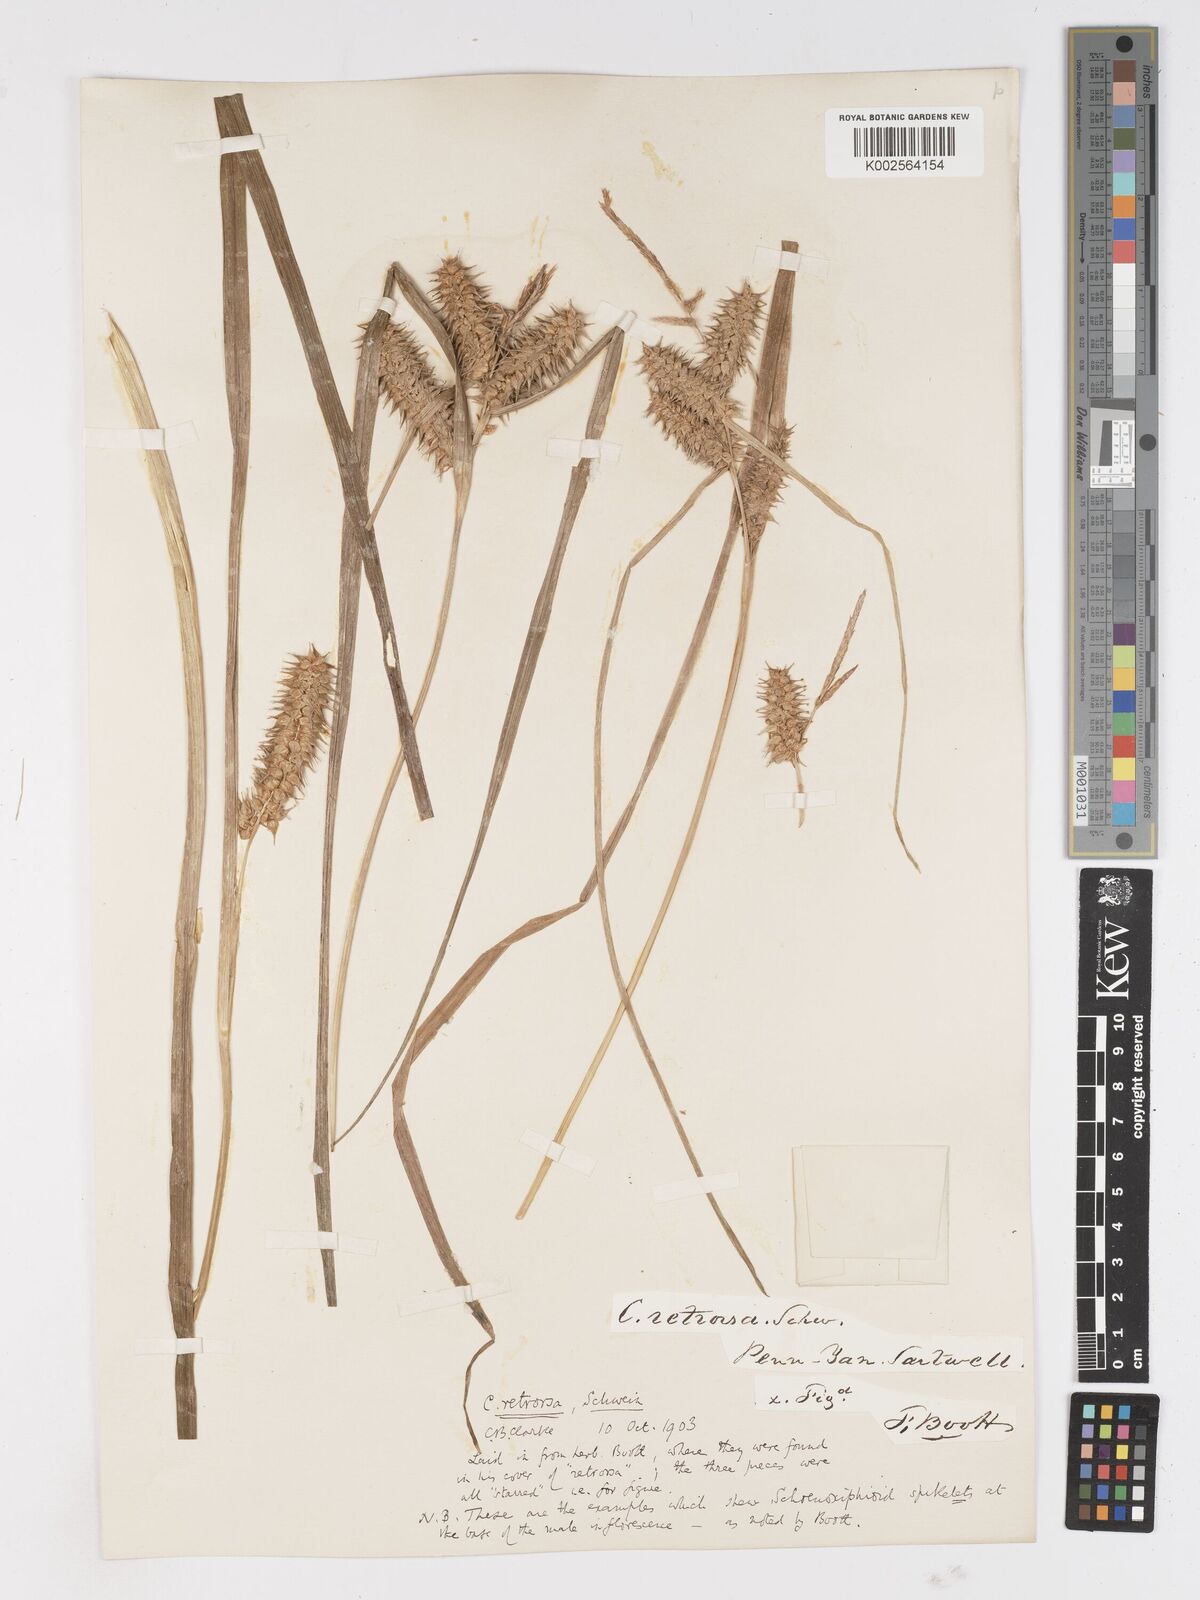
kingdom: Plantae
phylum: Tracheophyta
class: Liliopsida
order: Poales
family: Cyperaceae
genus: Carex
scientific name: Carex retrorsa
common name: Knot-sheath sedge
